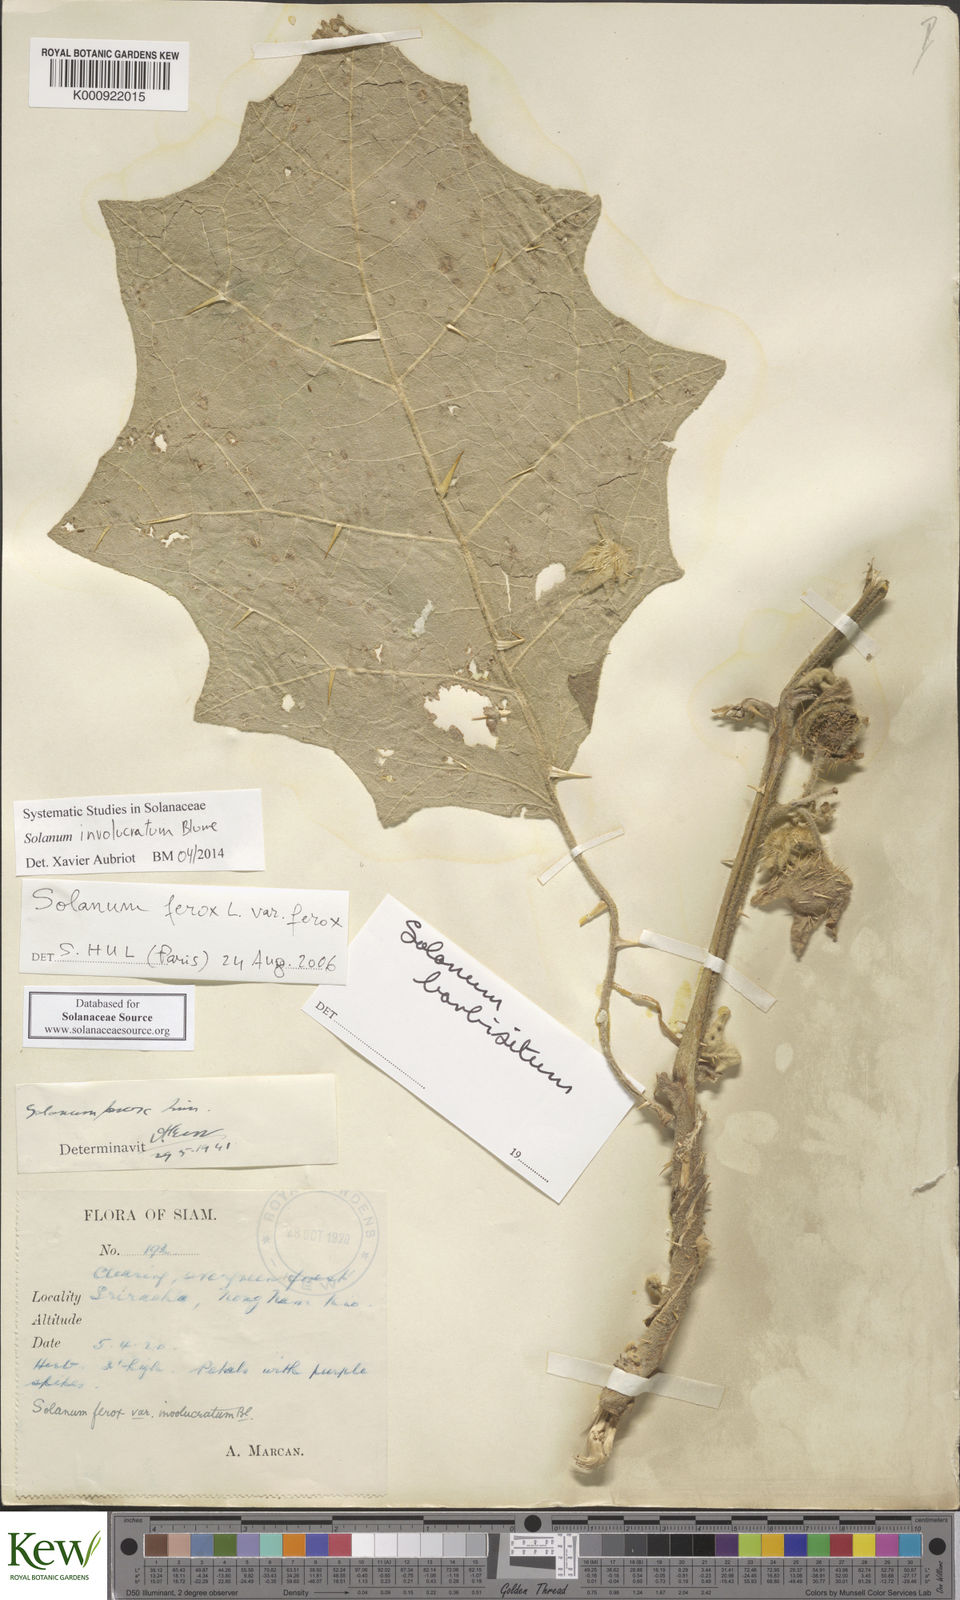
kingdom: Plantae
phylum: Tracheophyta
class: Magnoliopsida
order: Solanales
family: Solanaceae
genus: Solanum
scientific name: Solanum involucratum
